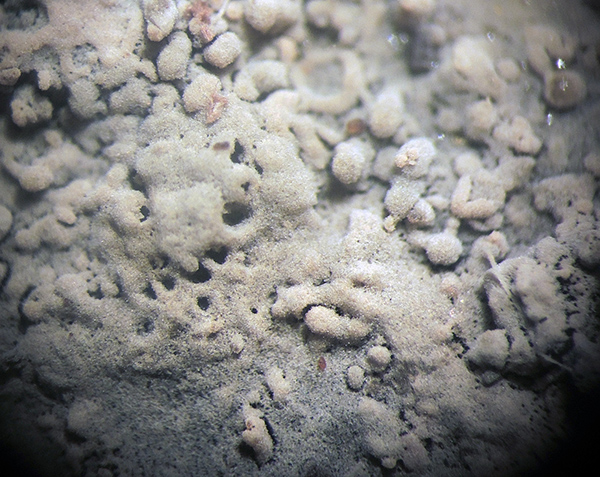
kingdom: Fungi
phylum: Basidiomycota
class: Agaricomycetes
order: Russulales
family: Xenasmataceae
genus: Xenasma
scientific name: Xenasma tulasnelloideum
